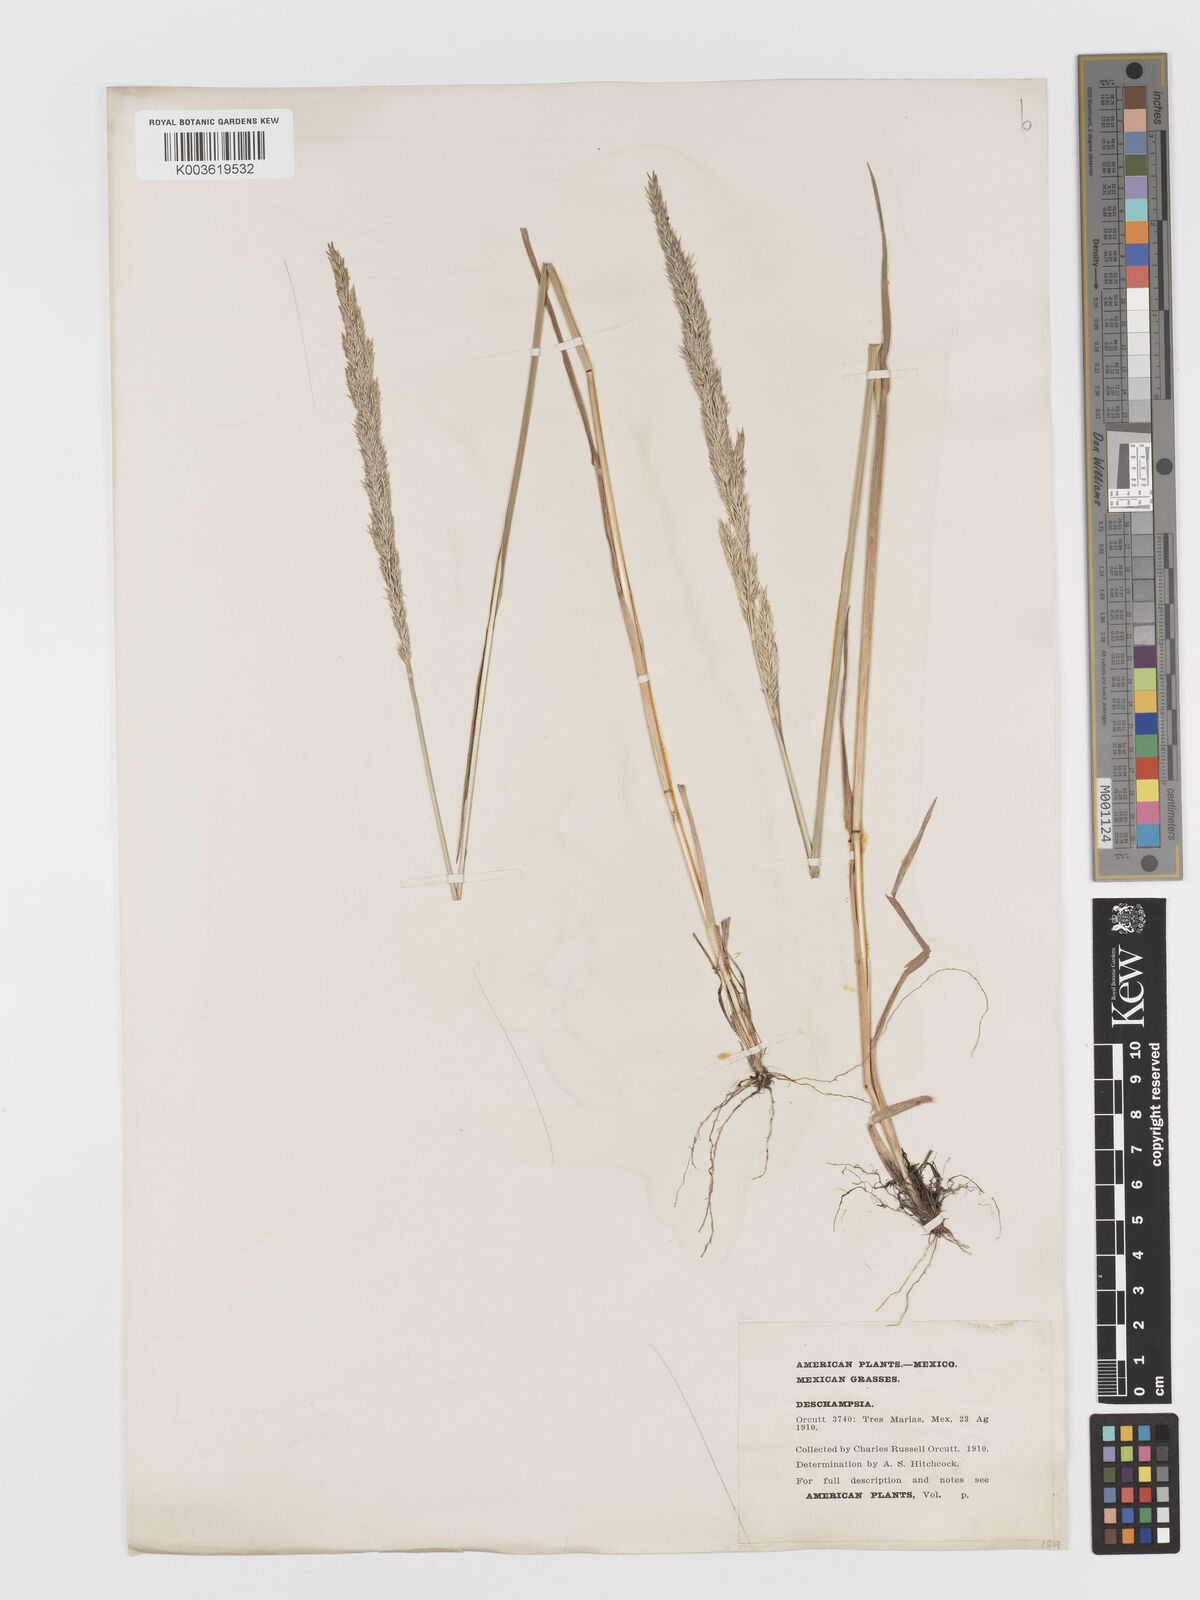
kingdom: Plantae
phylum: Tracheophyta
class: Liliopsida
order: Poales
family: Poaceae
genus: Peyritschia
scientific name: Peyritschia koelerioides
